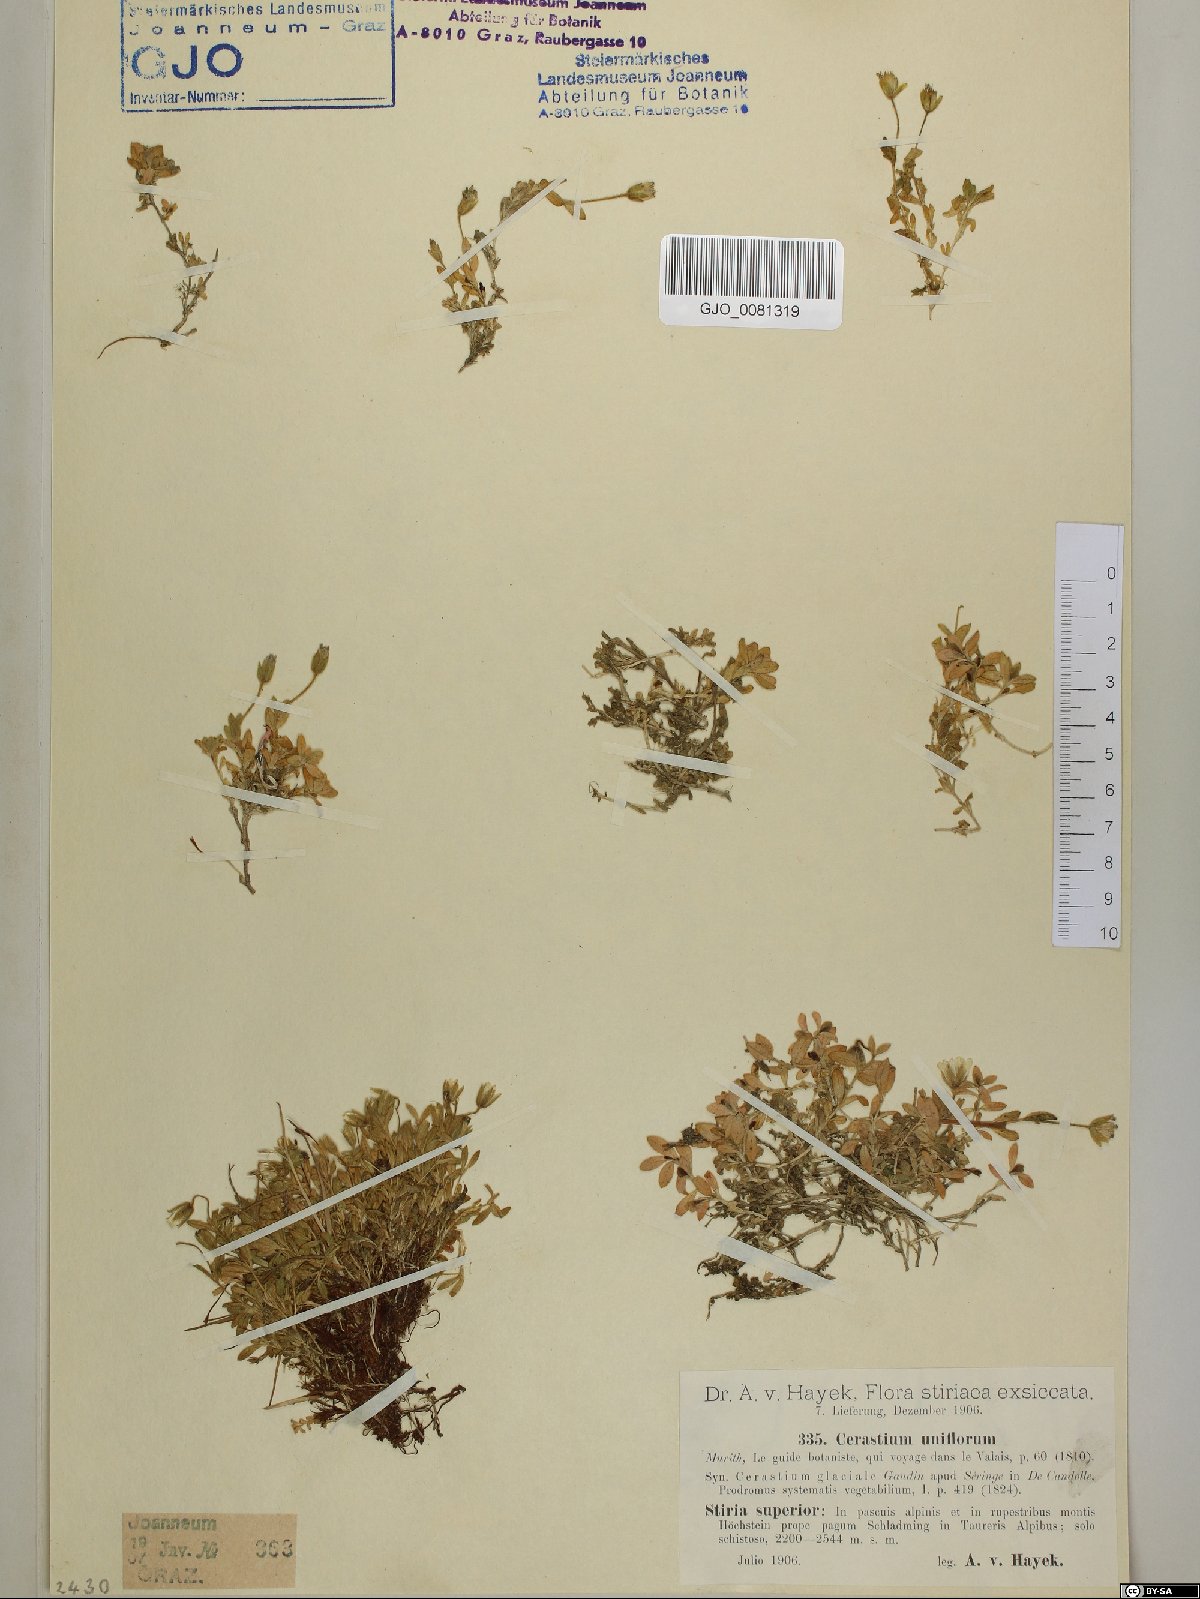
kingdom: Plantae
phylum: Tracheophyta
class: Magnoliopsida
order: Caryophyllales
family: Caryophyllaceae
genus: Cerastium
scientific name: Cerastium uniflorum
